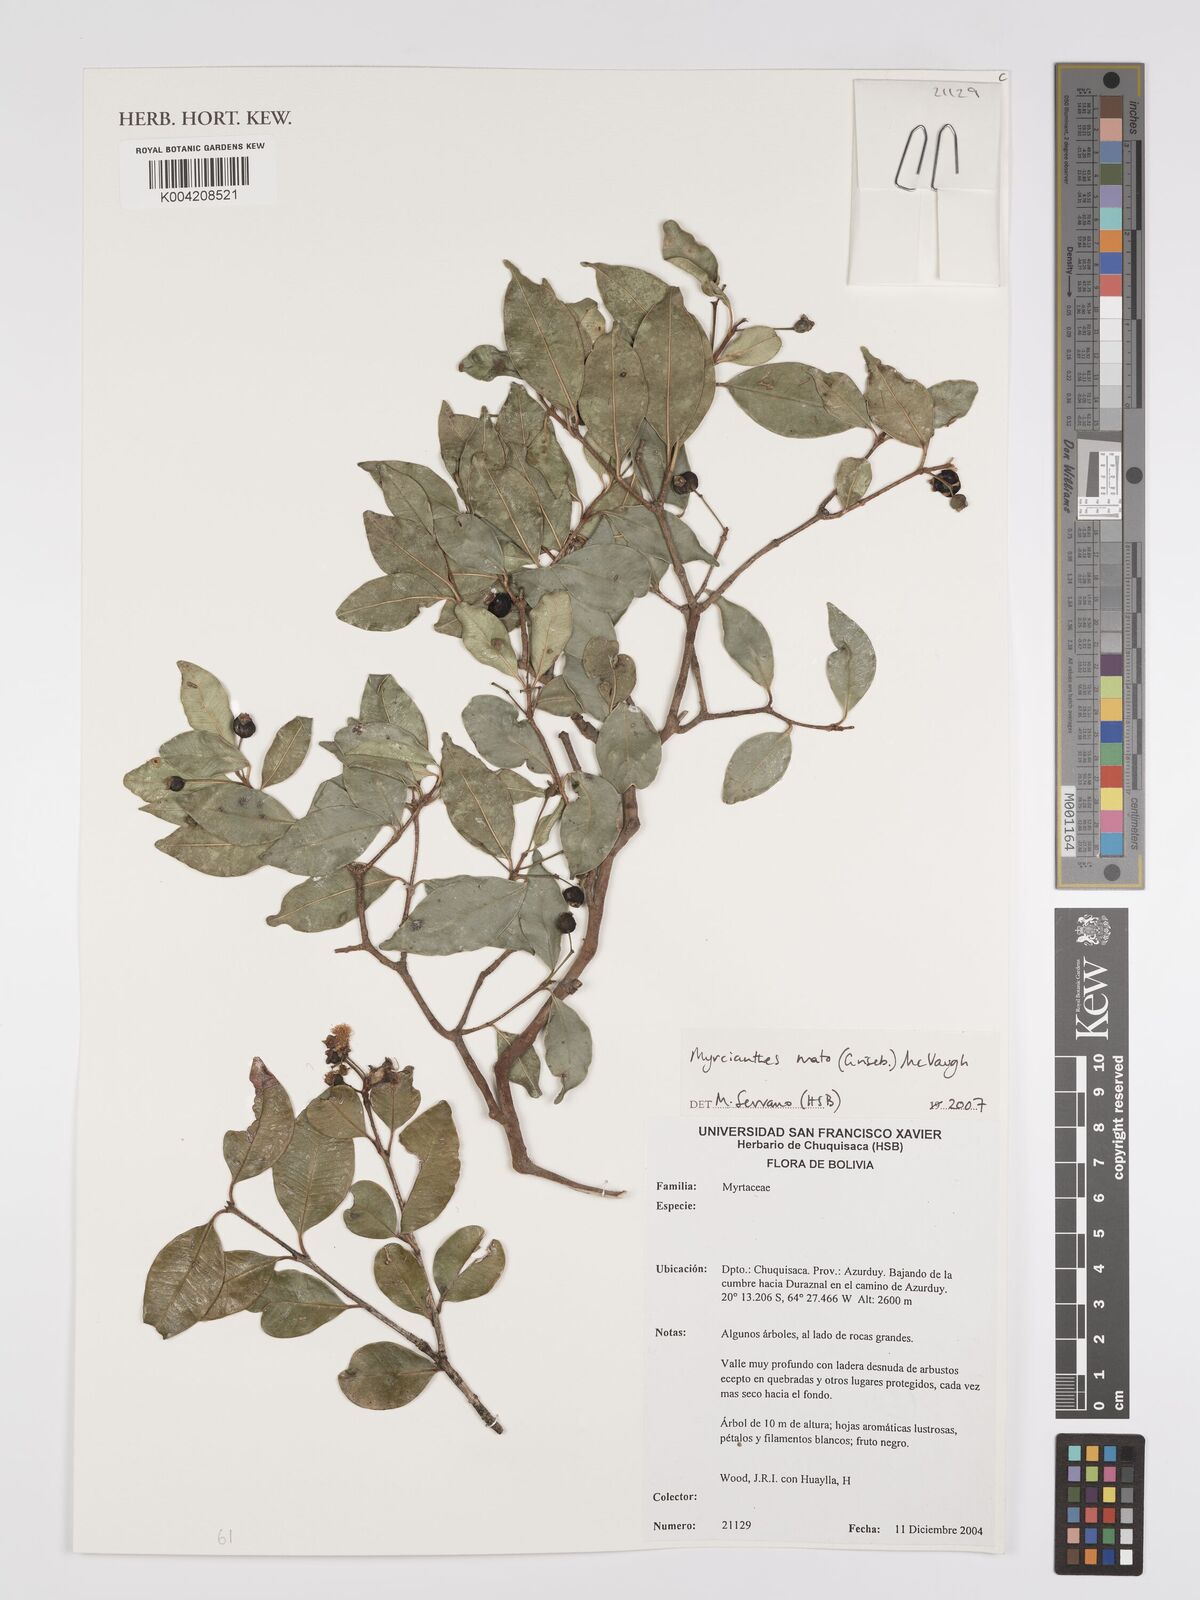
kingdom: Plantae
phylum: Tracheophyta
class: Magnoliopsida
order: Myrtales
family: Myrtaceae
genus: Myrcianthes
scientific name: Myrcianthes mato
